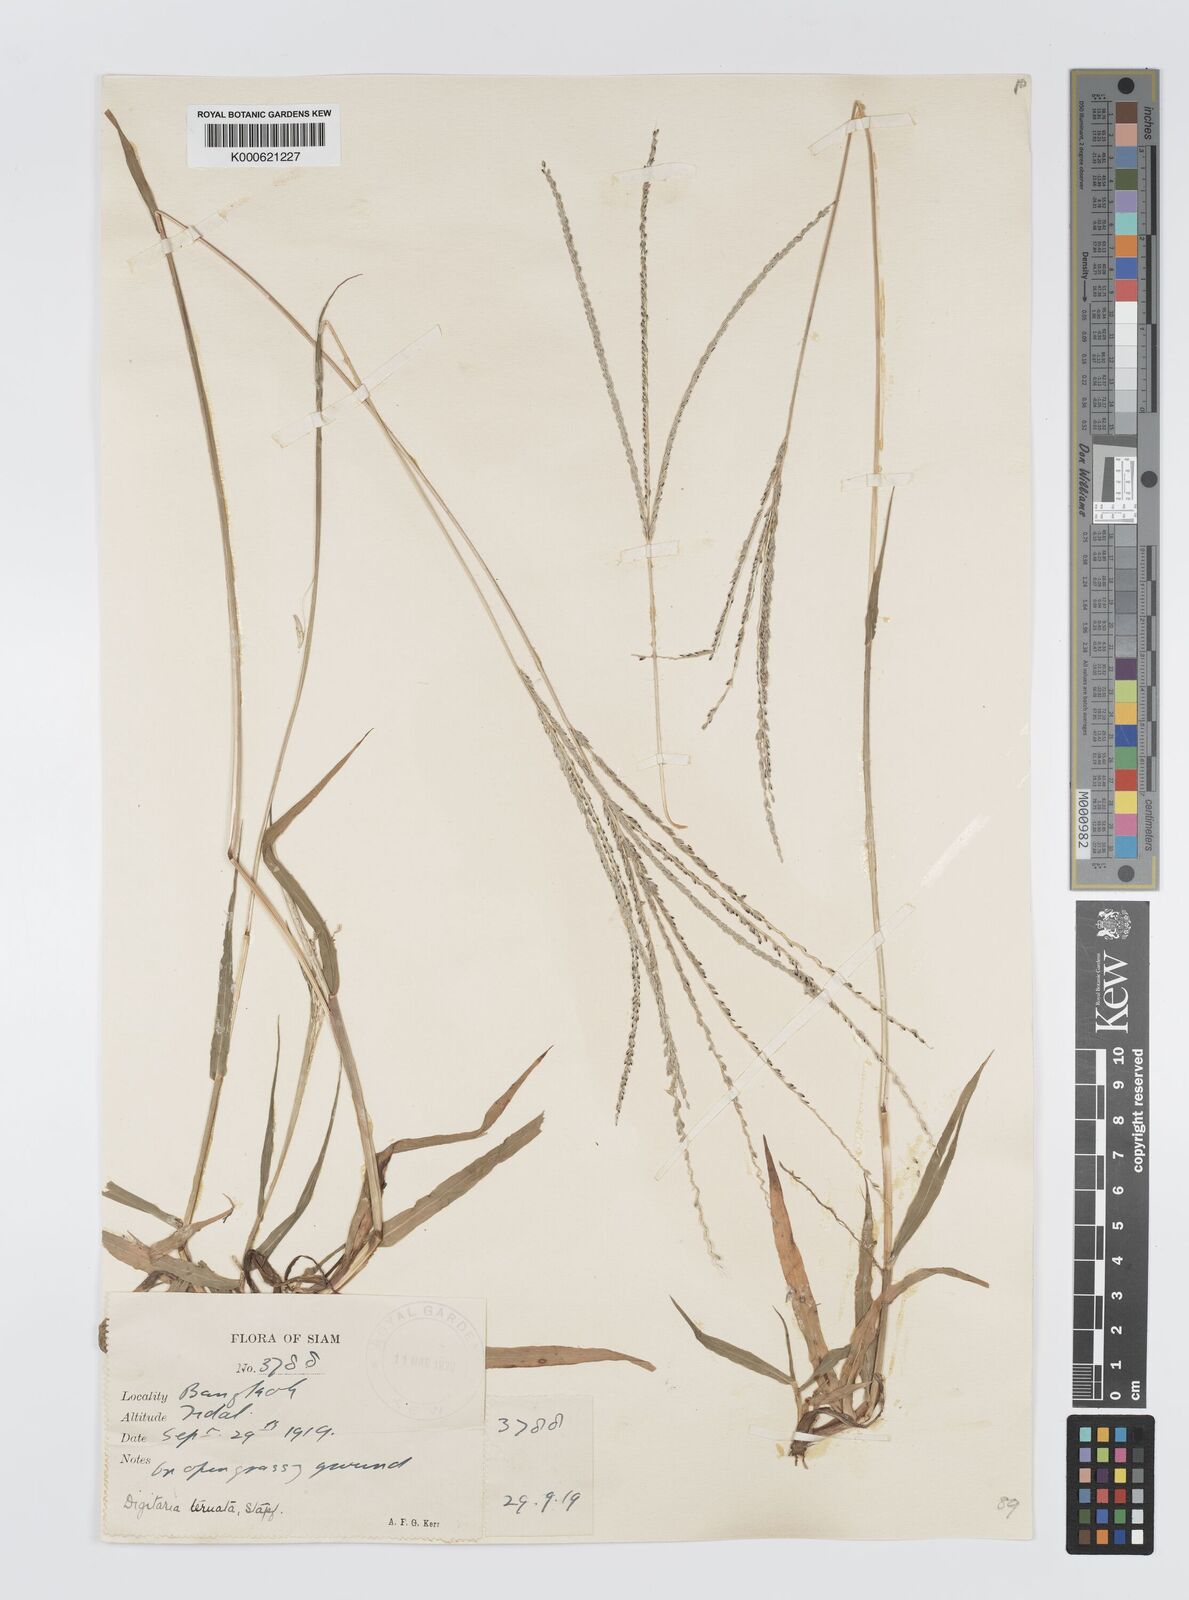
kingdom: Plantae
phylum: Tracheophyta
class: Liliopsida
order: Poales
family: Poaceae
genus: Digitaria
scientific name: Digitaria ternata
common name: Blackseed crabgrass
